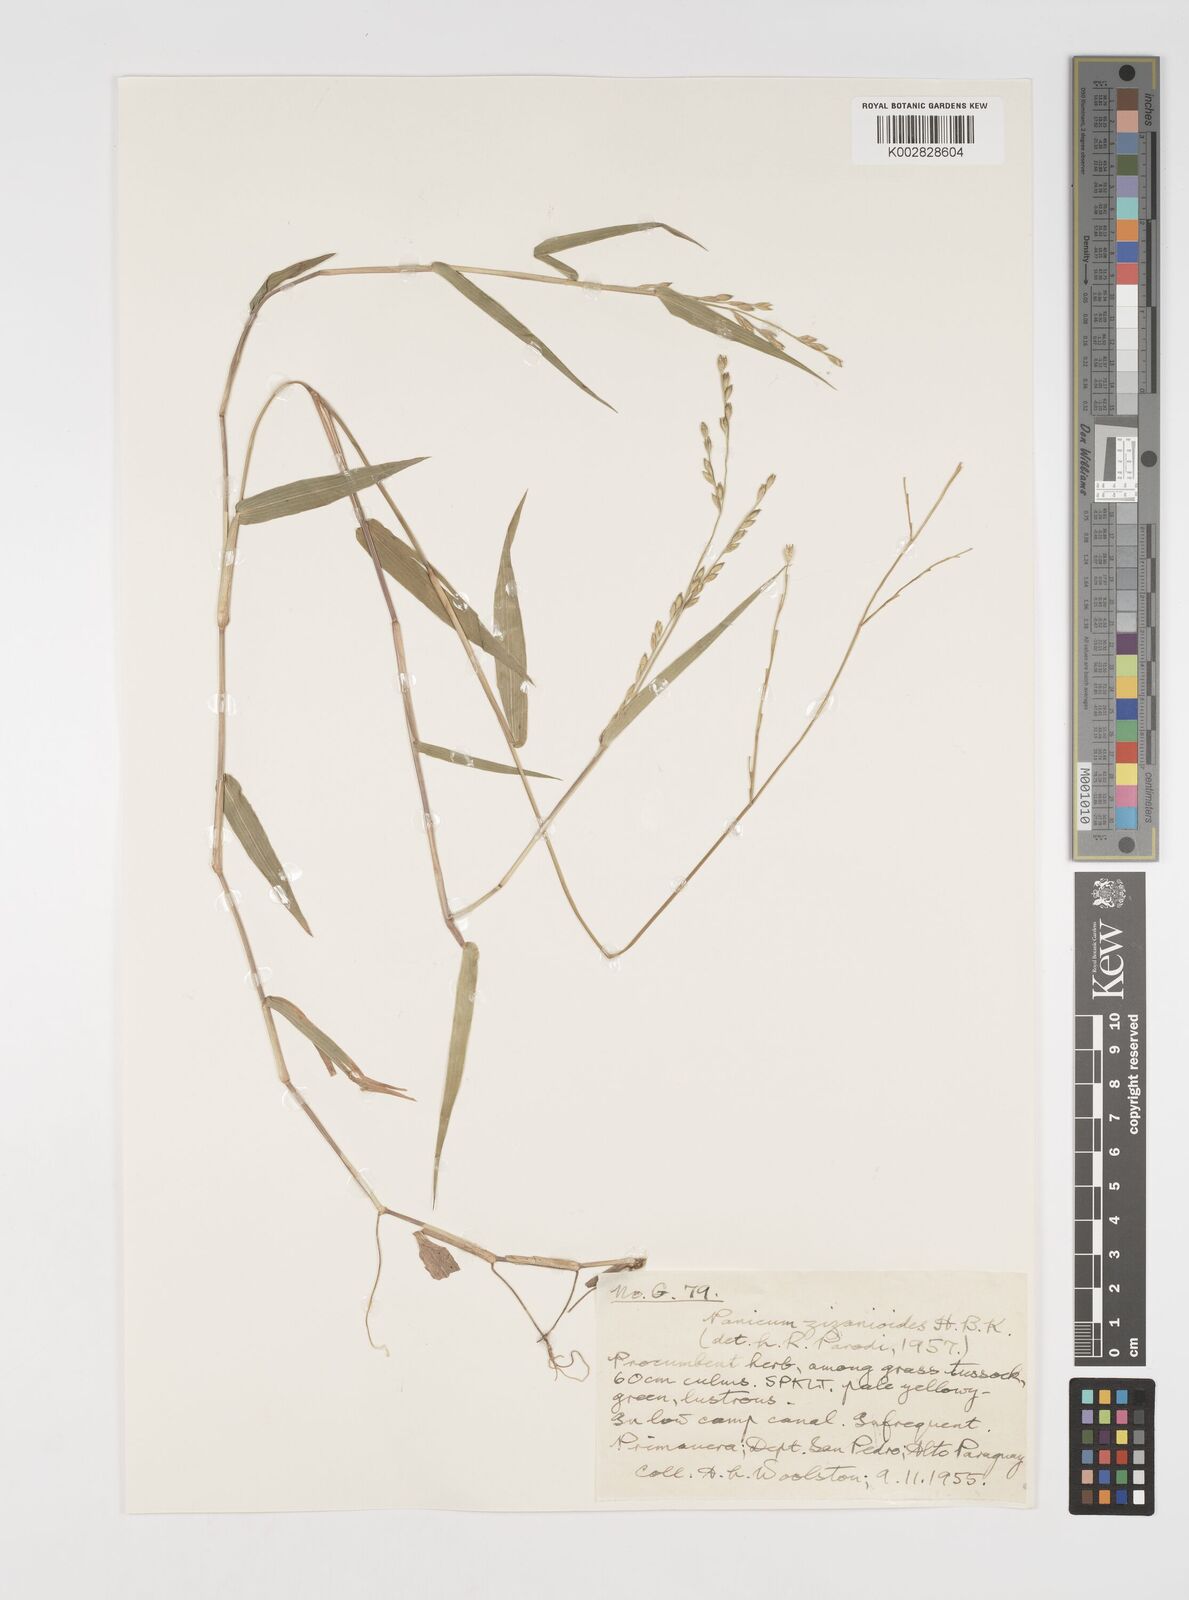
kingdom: Plantae
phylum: Tracheophyta
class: Liliopsida
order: Poales
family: Poaceae
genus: Acroceras
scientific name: Acroceras zizanioides
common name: Oat grass
